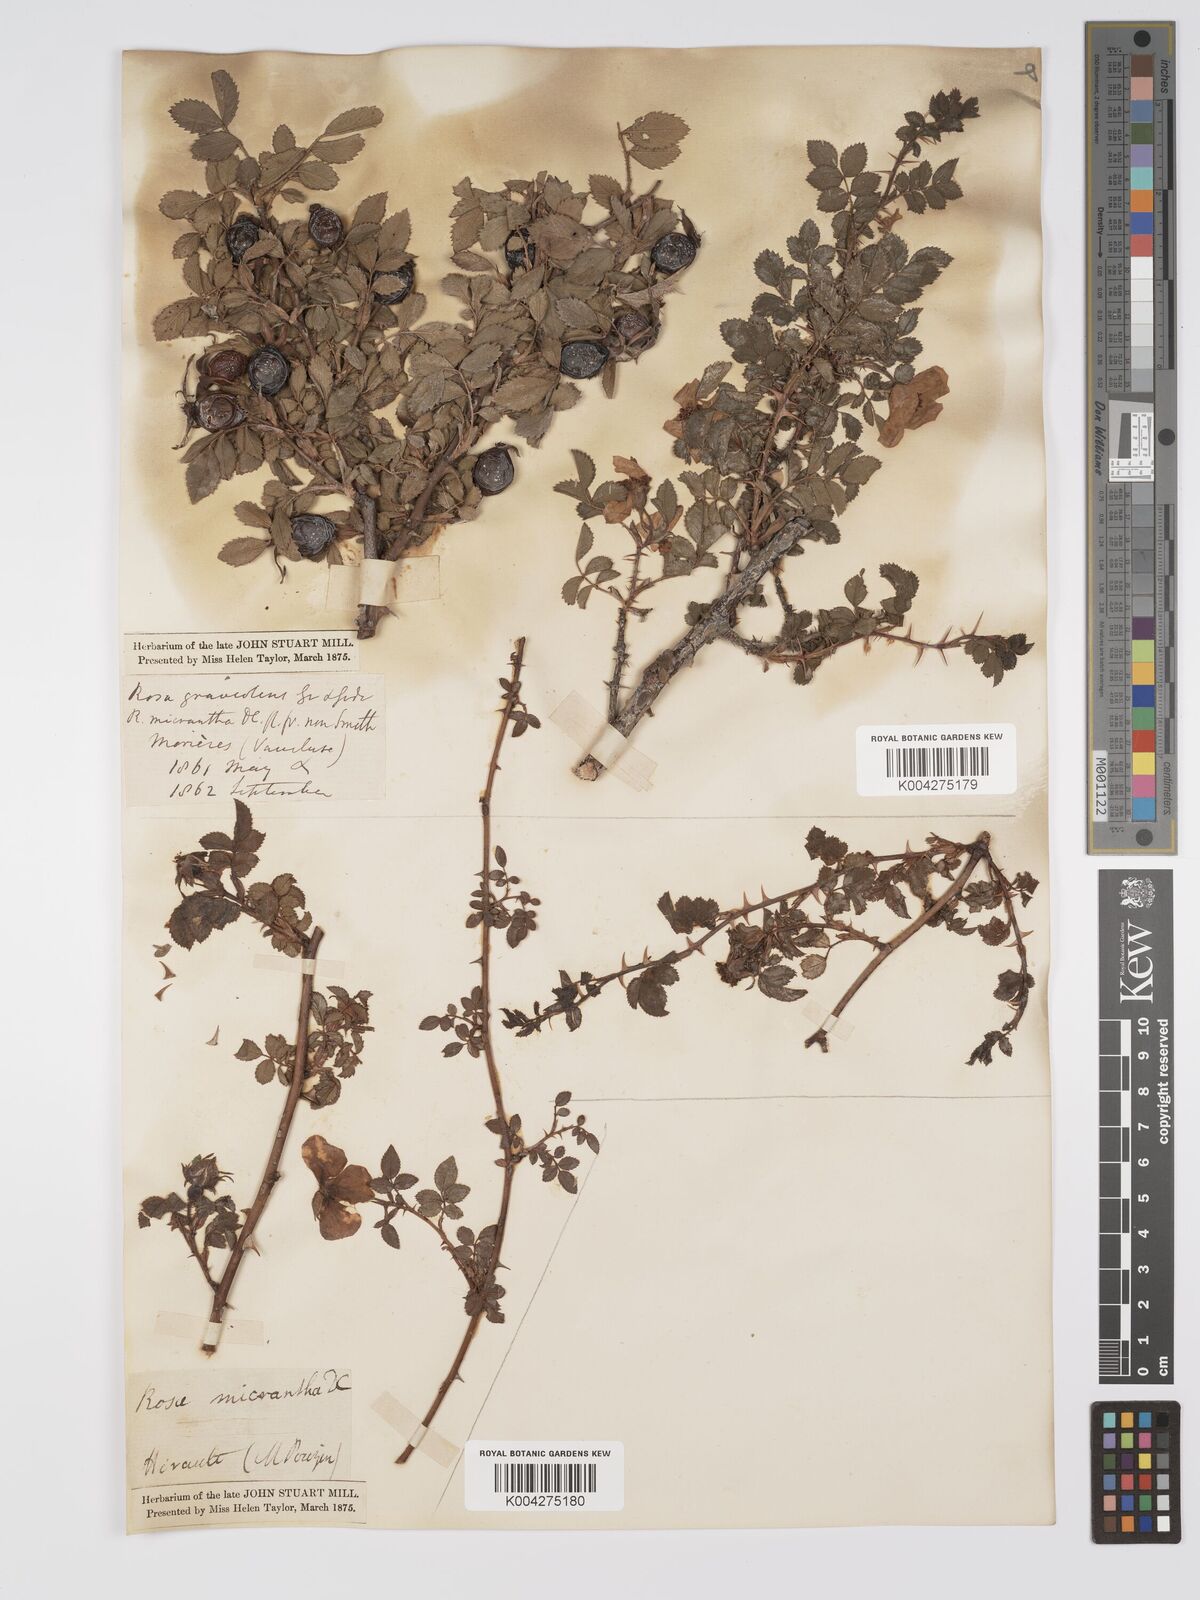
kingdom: Plantae
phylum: Tracheophyta
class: Magnoliopsida
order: Rosales
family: Rosaceae
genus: Rosa
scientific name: Rosa
